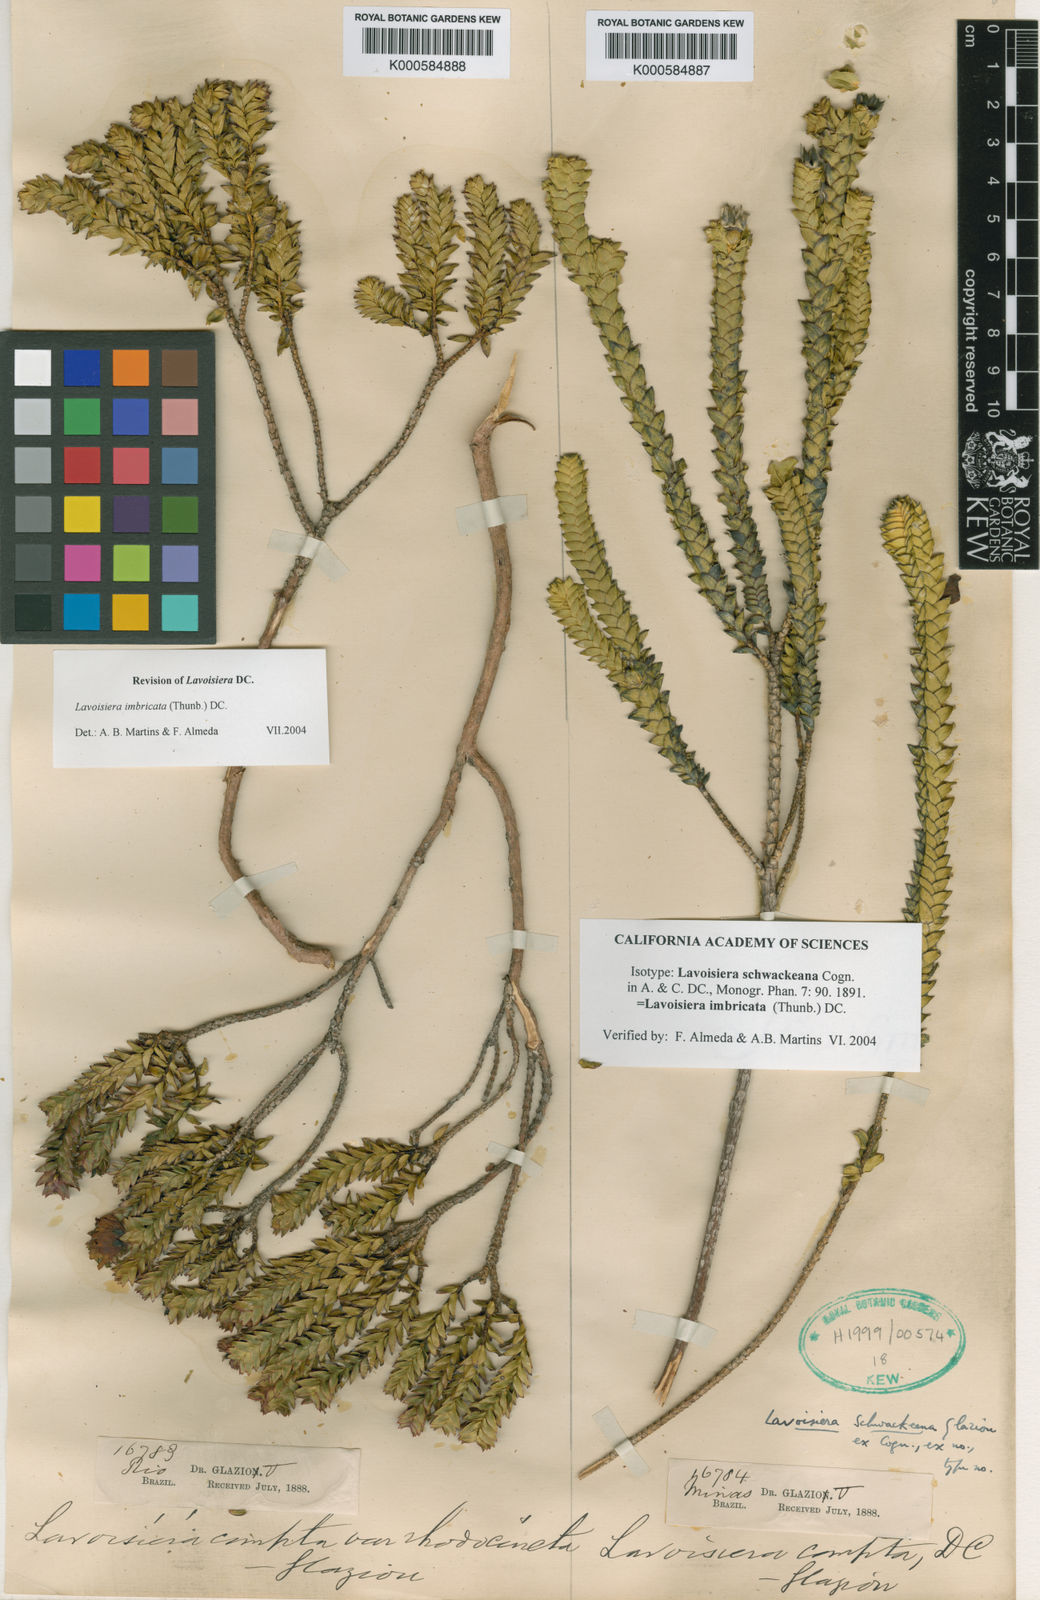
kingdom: Plantae
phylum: Tracheophyta
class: Magnoliopsida
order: Myrtales
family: Melastomataceae
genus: Microlicia
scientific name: Microlicia cataphracta
